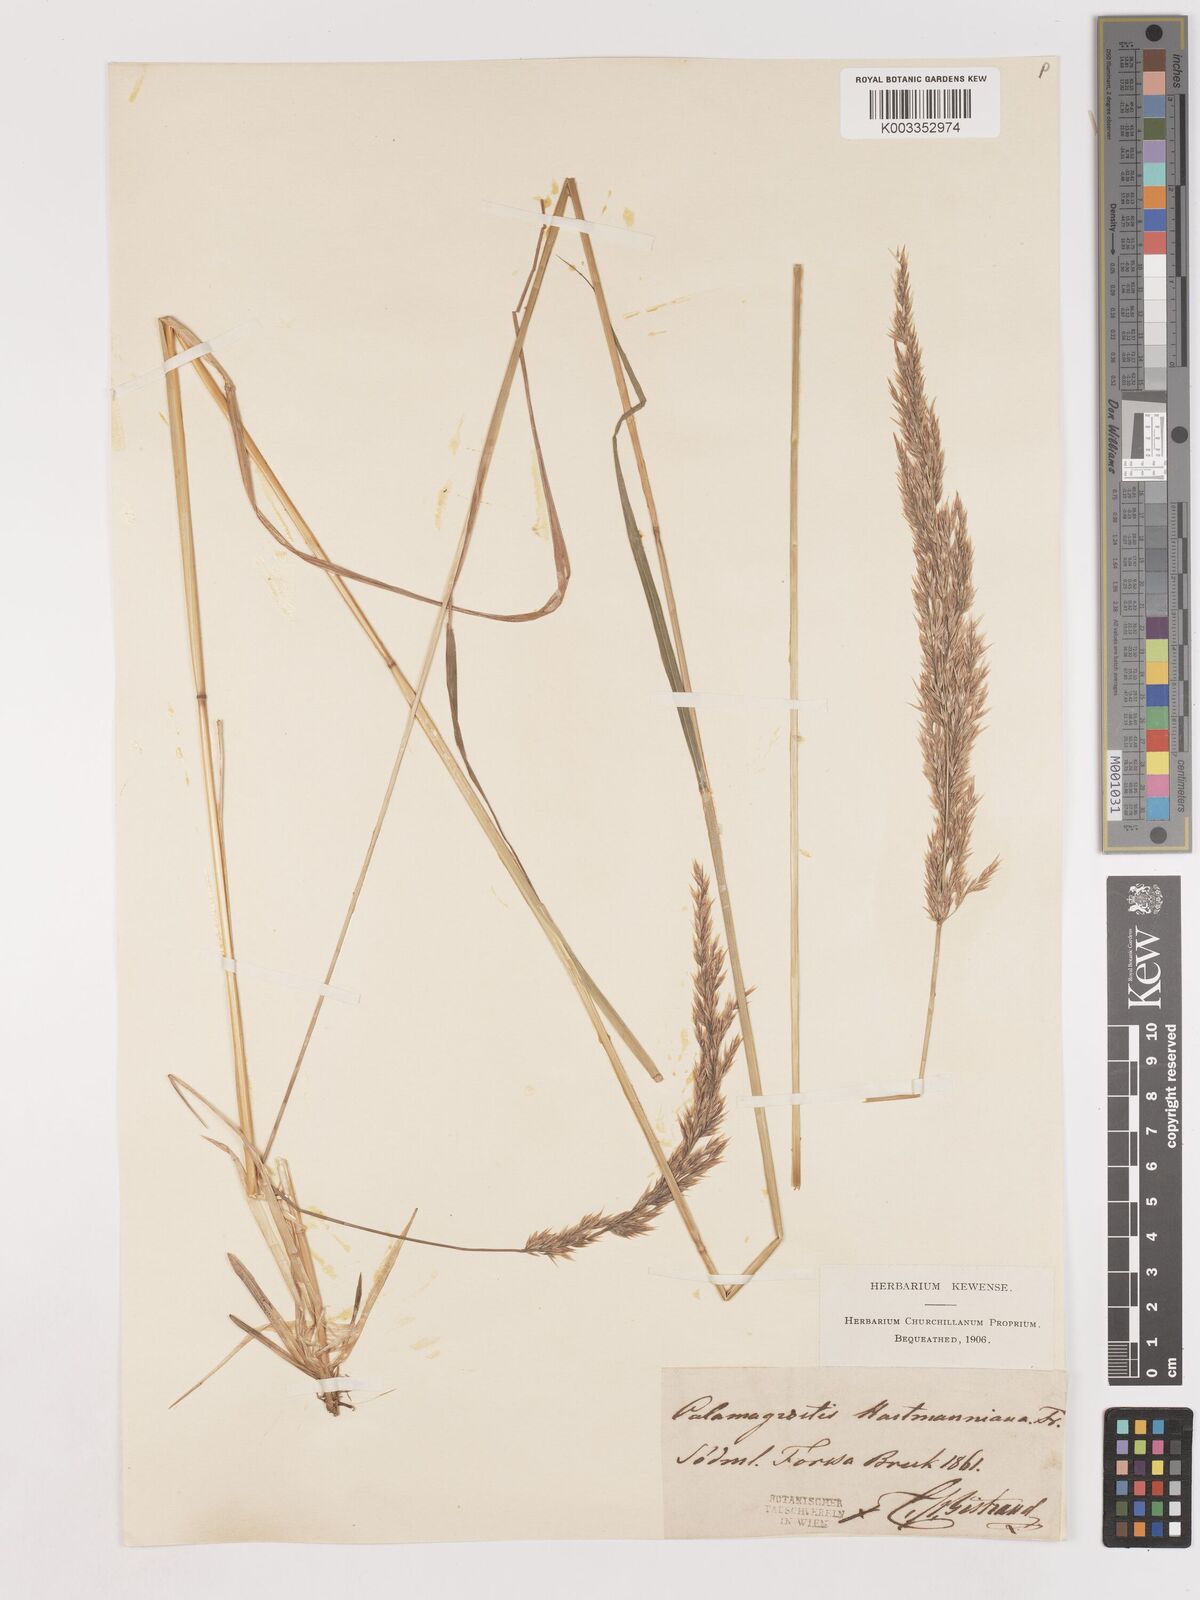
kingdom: Plantae
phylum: Tracheophyta
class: Liliopsida
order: Poales
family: Poaceae
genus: Calamagrostis
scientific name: Calamagrostis canescens
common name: Purple small-reed
